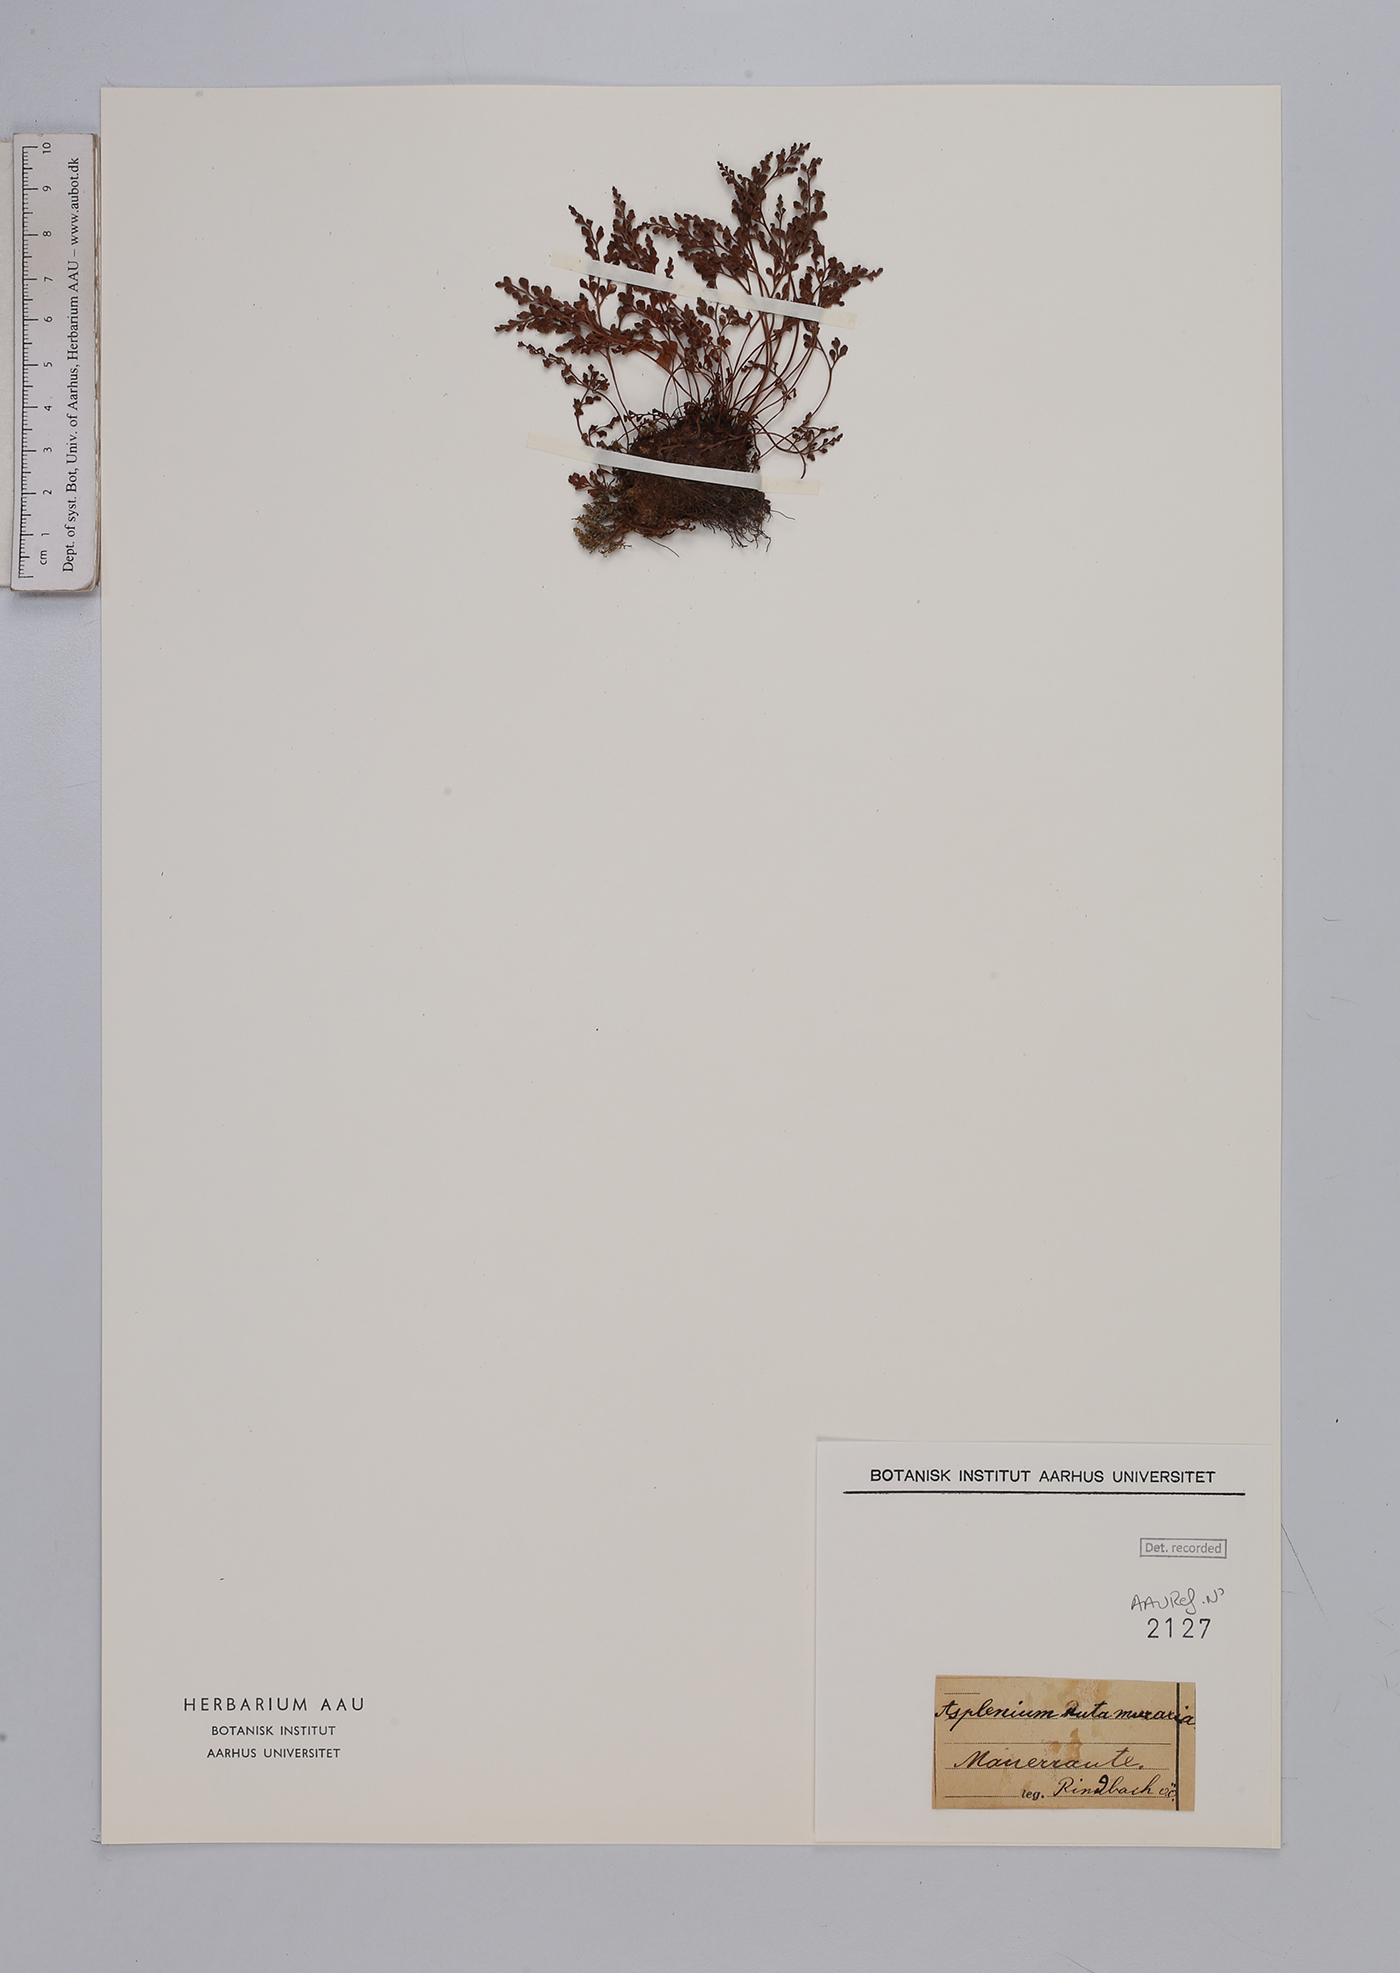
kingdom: Plantae
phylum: Tracheophyta
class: Polypodiopsida
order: Polypodiales
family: Aspleniaceae
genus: Asplenium
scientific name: Asplenium ruta-muraria
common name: Wall-rue
